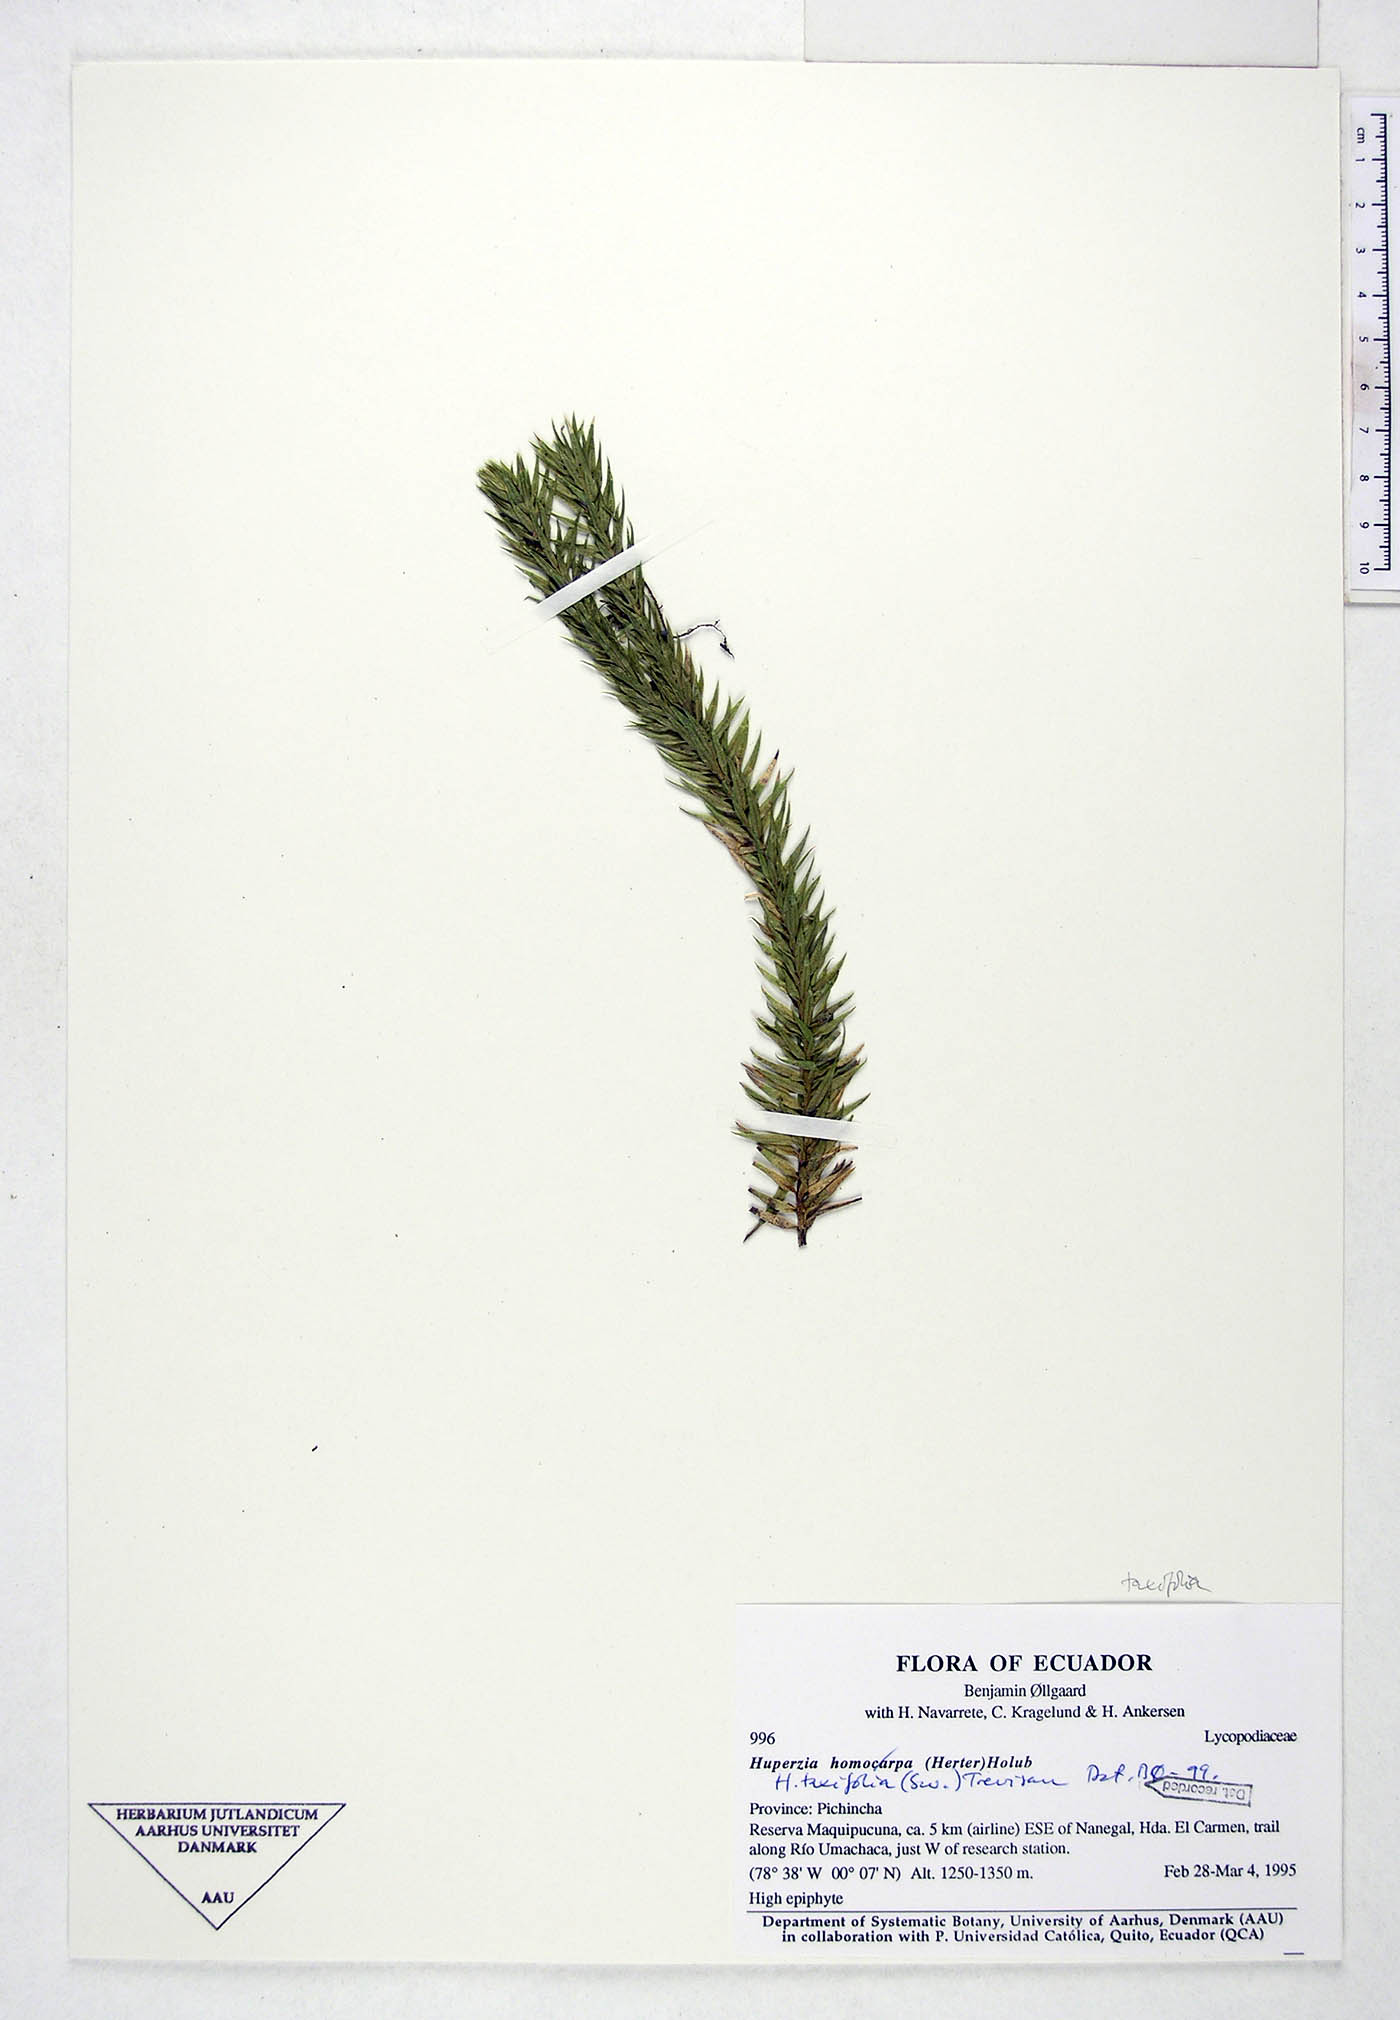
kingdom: Plantae
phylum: Tracheophyta
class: Lycopodiopsida
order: Lycopodiales
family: Lycopodiaceae
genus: Phlegmariurus
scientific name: Phlegmariurus taxifolius
